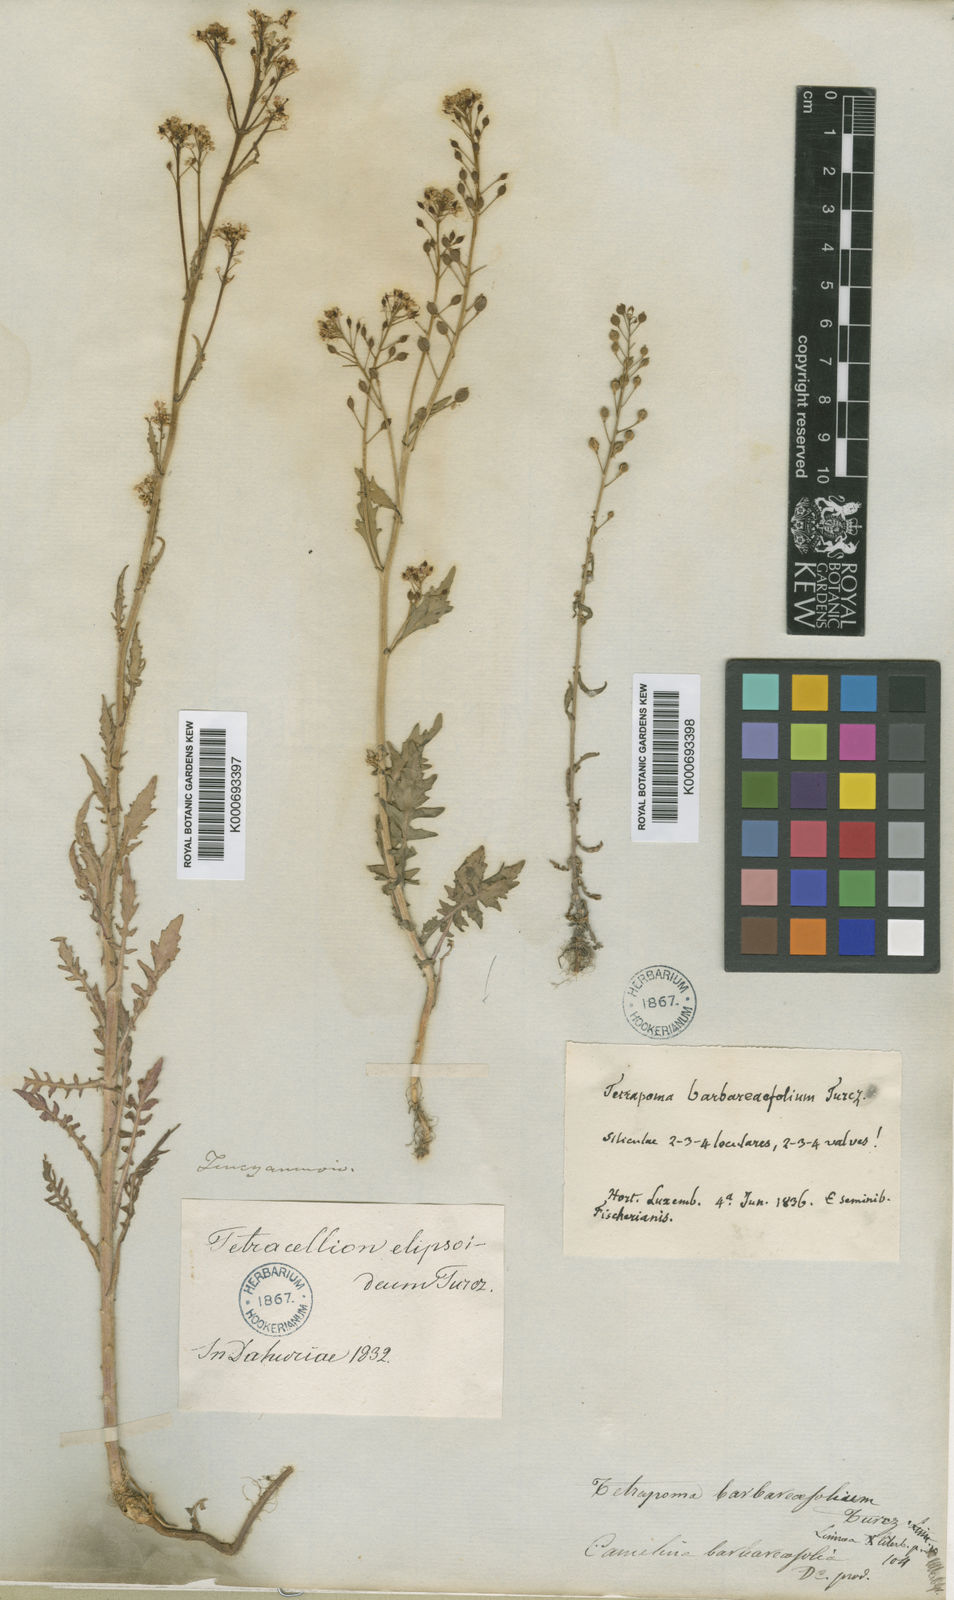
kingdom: Plantae
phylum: Tracheophyta
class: Magnoliopsida
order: Brassicales
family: Brassicaceae
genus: Rorippa
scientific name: Rorippa
